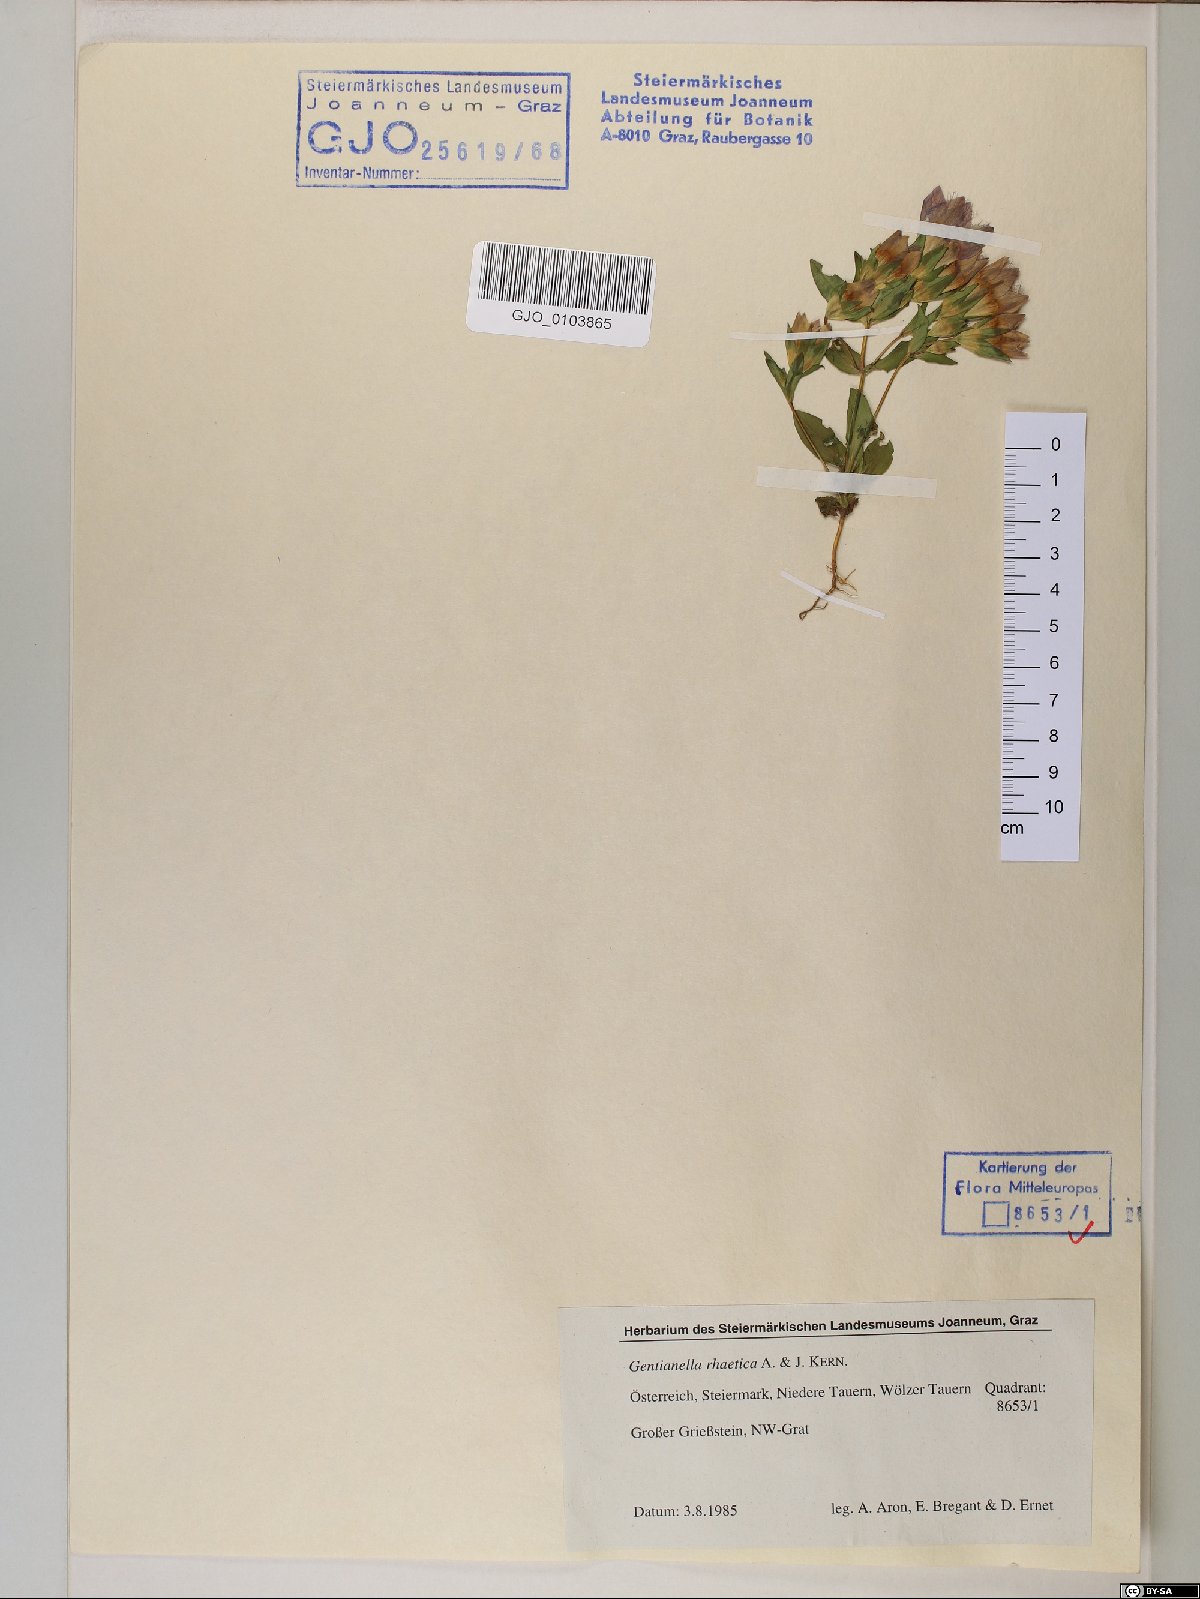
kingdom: Plantae
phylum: Tracheophyta
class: Magnoliopsida
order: Gentianales
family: Gentianaceae
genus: Gentianella
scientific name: Gentianella rhaetica
